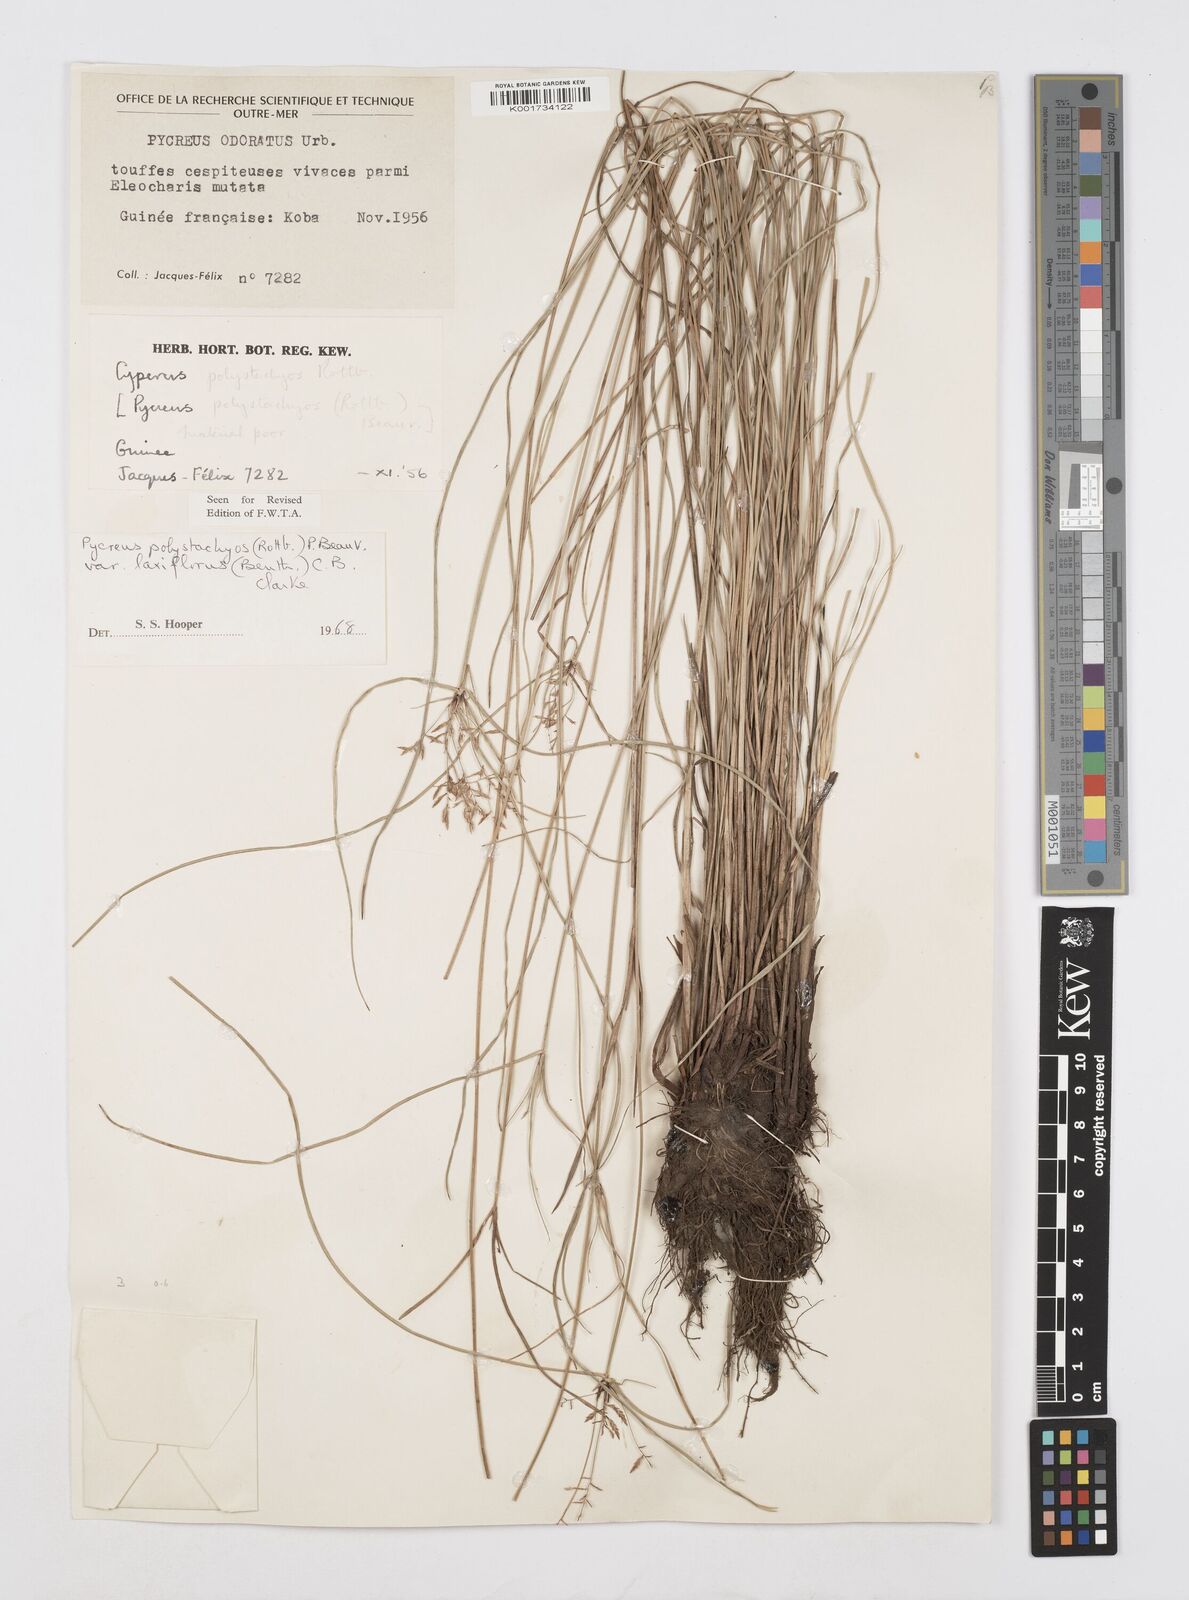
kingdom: Plantae
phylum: Tracheophyta
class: Liliopsida
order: Poales
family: Cyperaceae
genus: Cyperus
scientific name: Cyperus intactus
